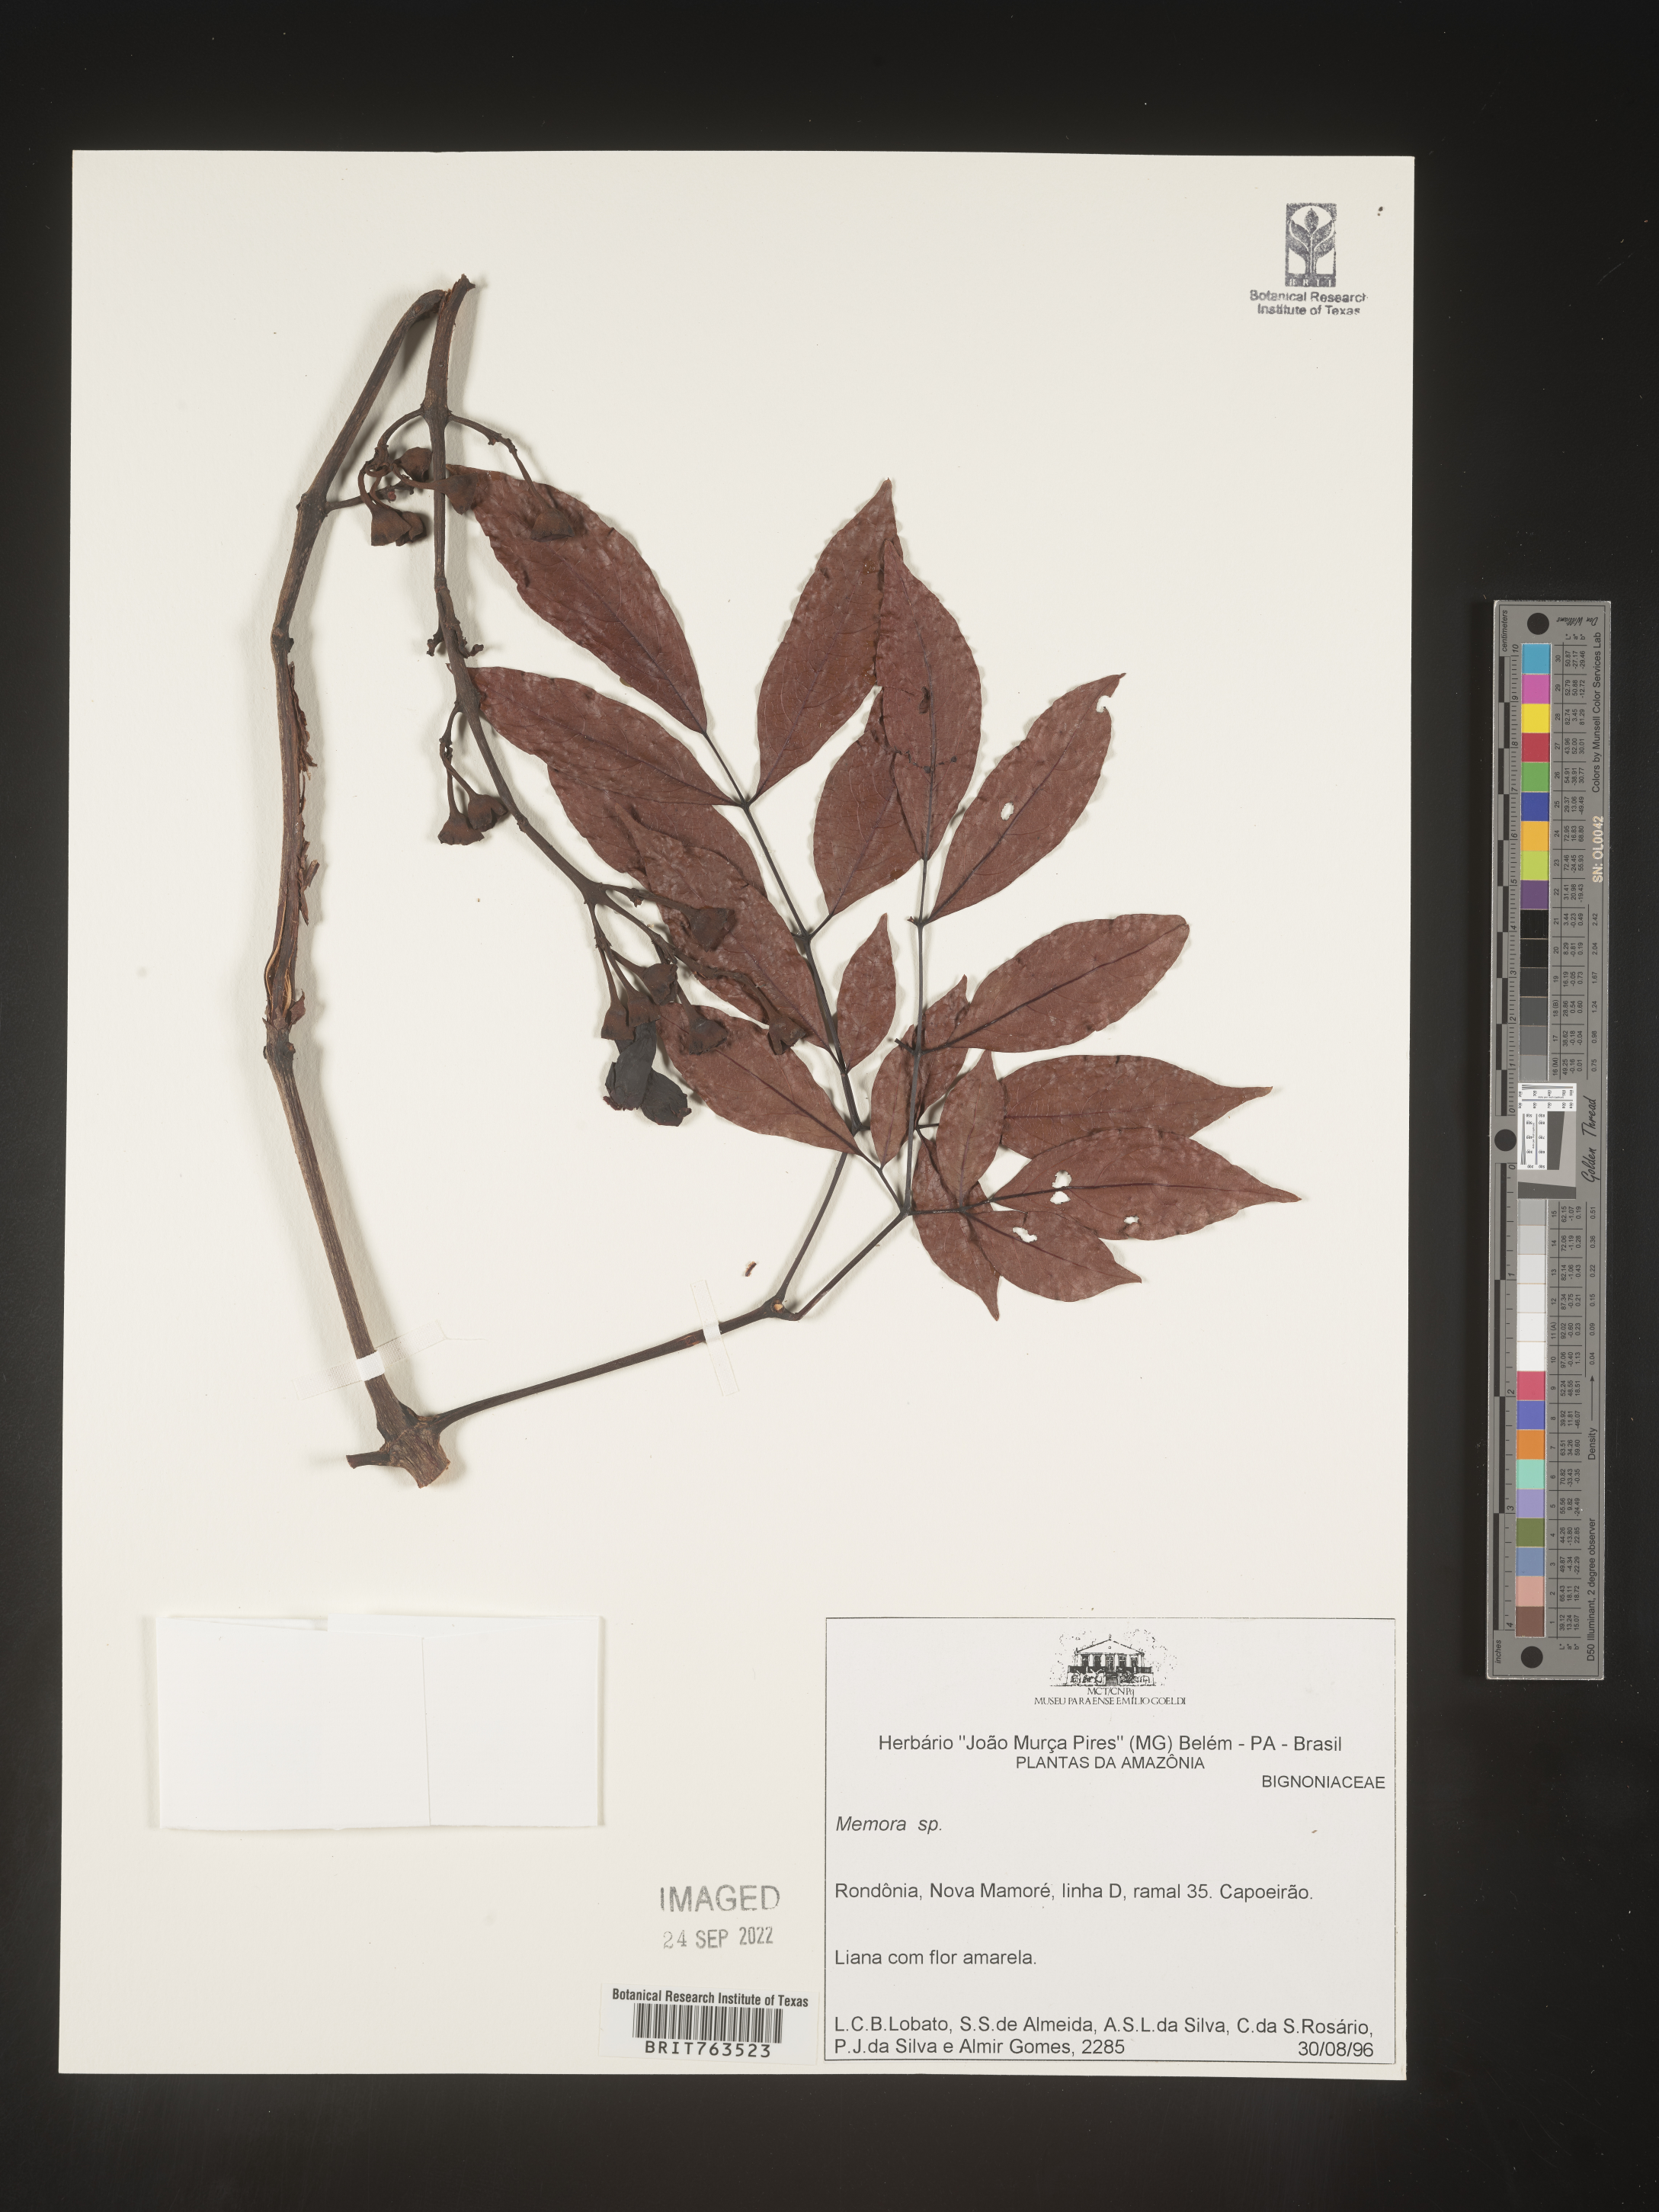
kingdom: Plantae
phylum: Tracheophyta
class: Magnoliopsida
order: Lamiales
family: Bignoniaceae
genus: Adenocalymma
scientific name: Adenocalymma
